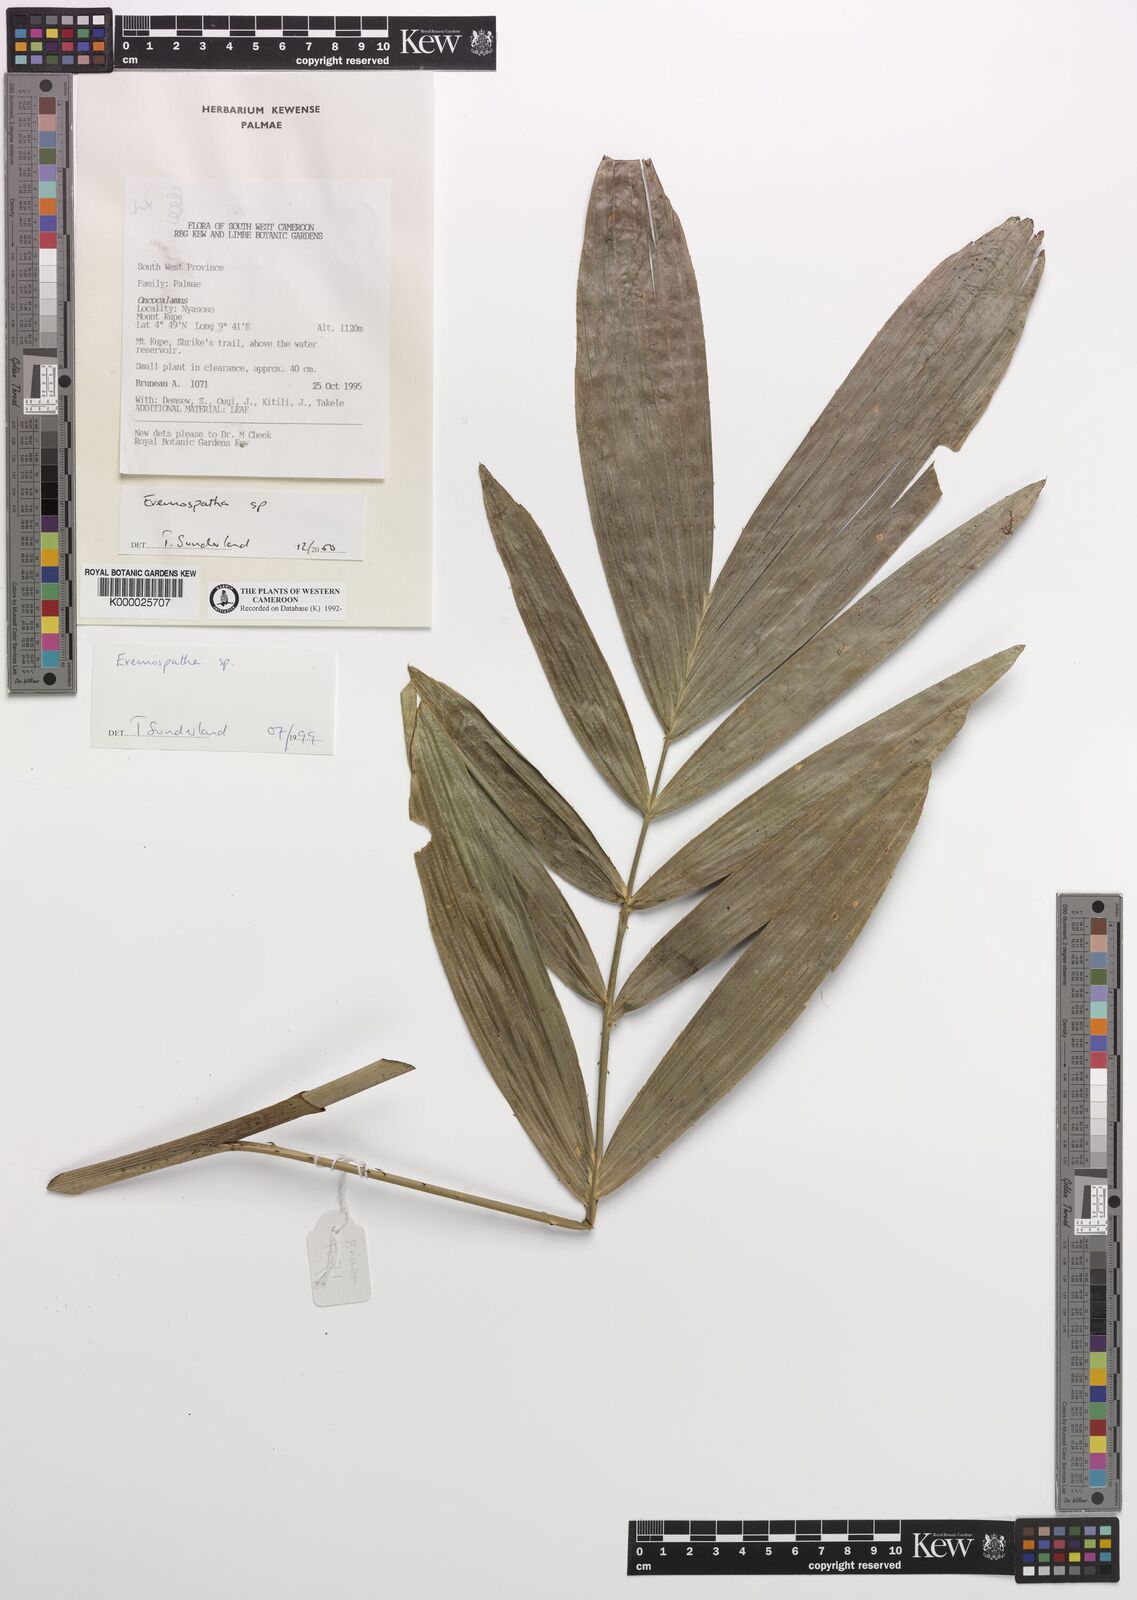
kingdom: Plantae
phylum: Tracheophyta
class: Liliopsida
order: Arecales
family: Arecaceae
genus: Eremospatha
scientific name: Eremospatha
